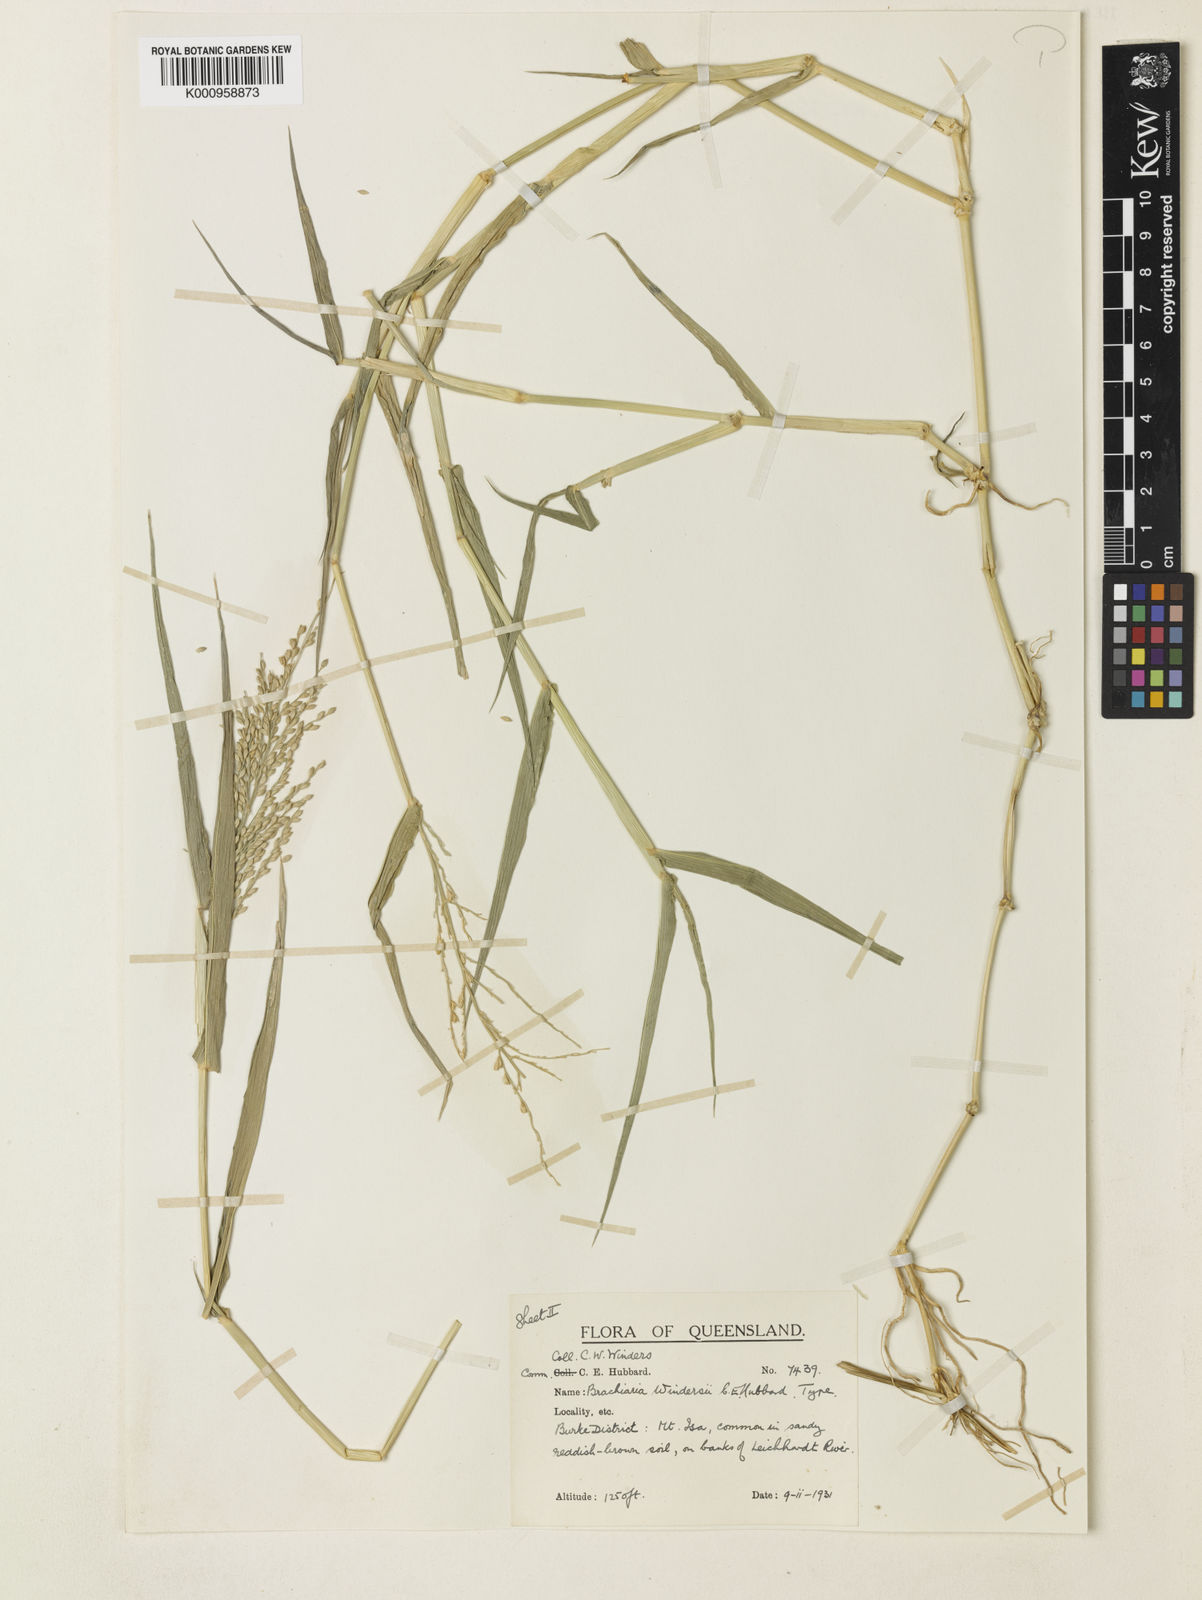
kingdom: Plantae
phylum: Tracheophyta
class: Liliopsida
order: Poales
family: Poaceae
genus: Urochloa
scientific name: Urochloa whiteana
